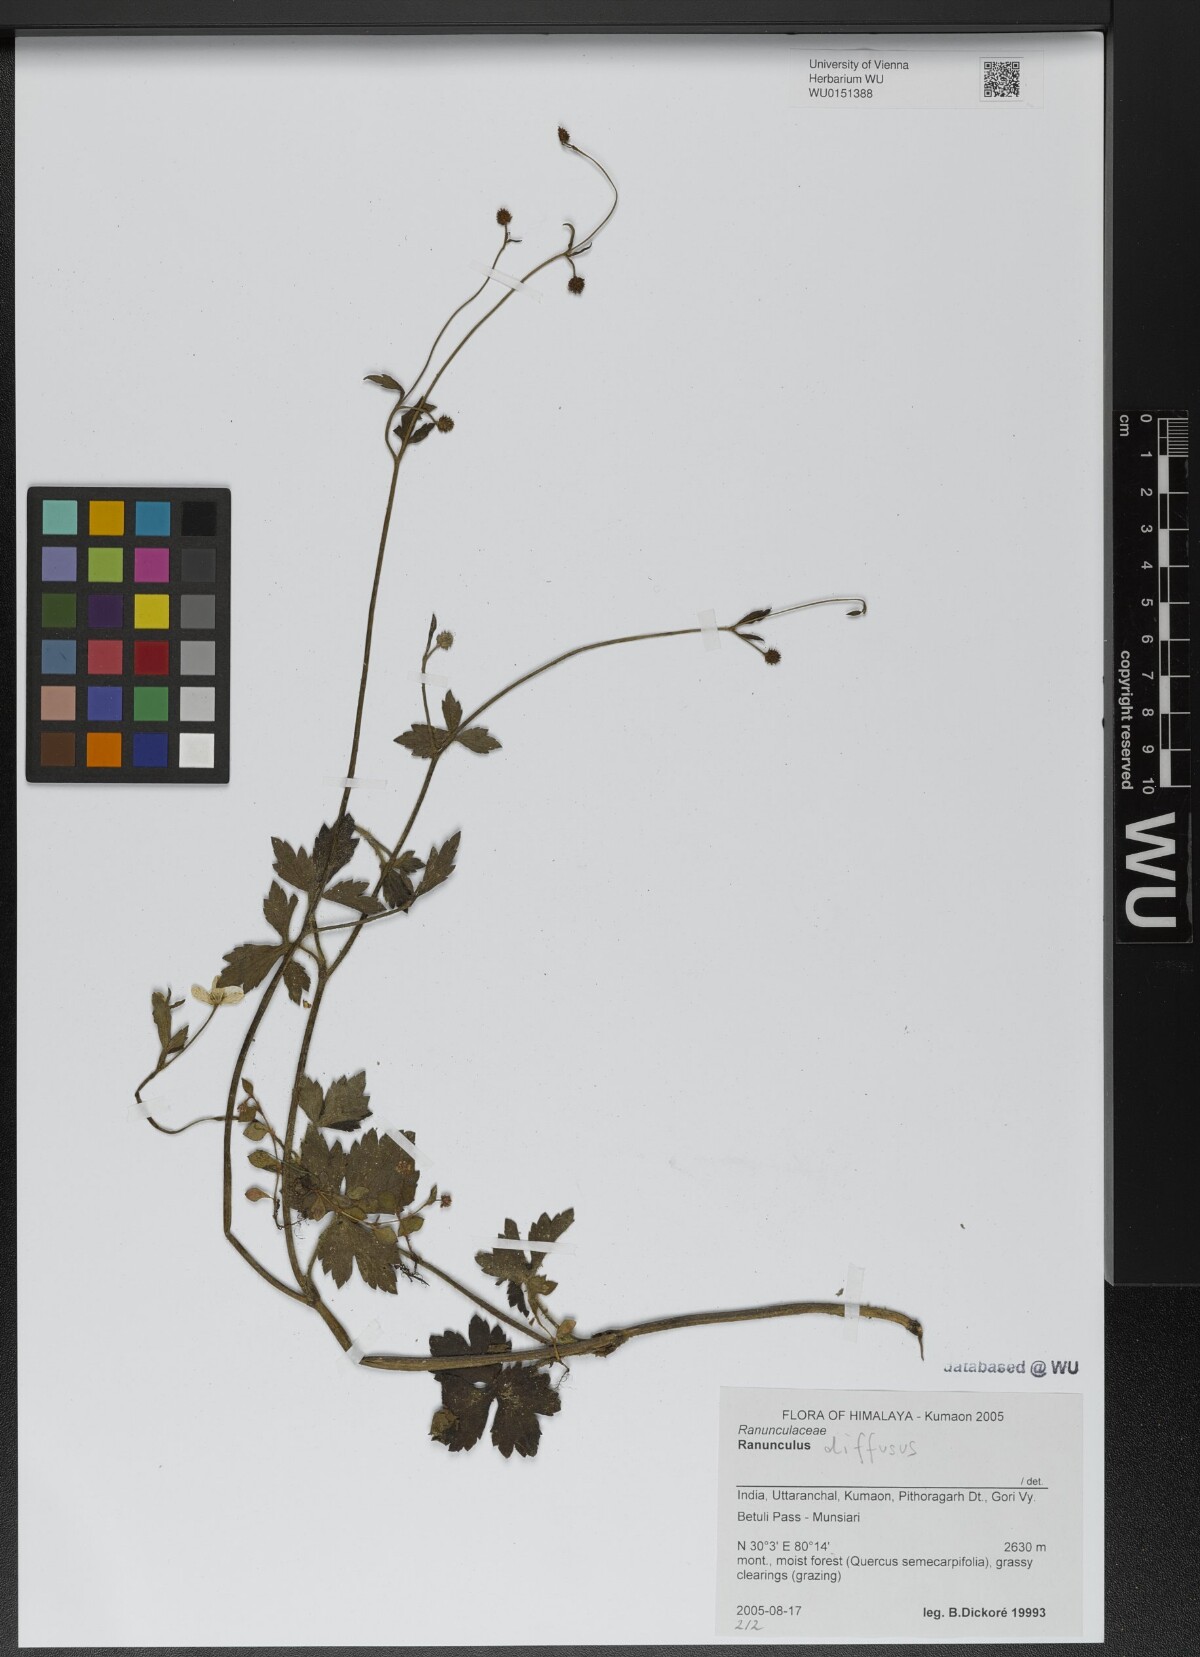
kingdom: Plantae
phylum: Tracheophyta
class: Magnoliopsida
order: Ranunculales
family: Ranunculaceae
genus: Ranunculus
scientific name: Ranunculus diffusus
